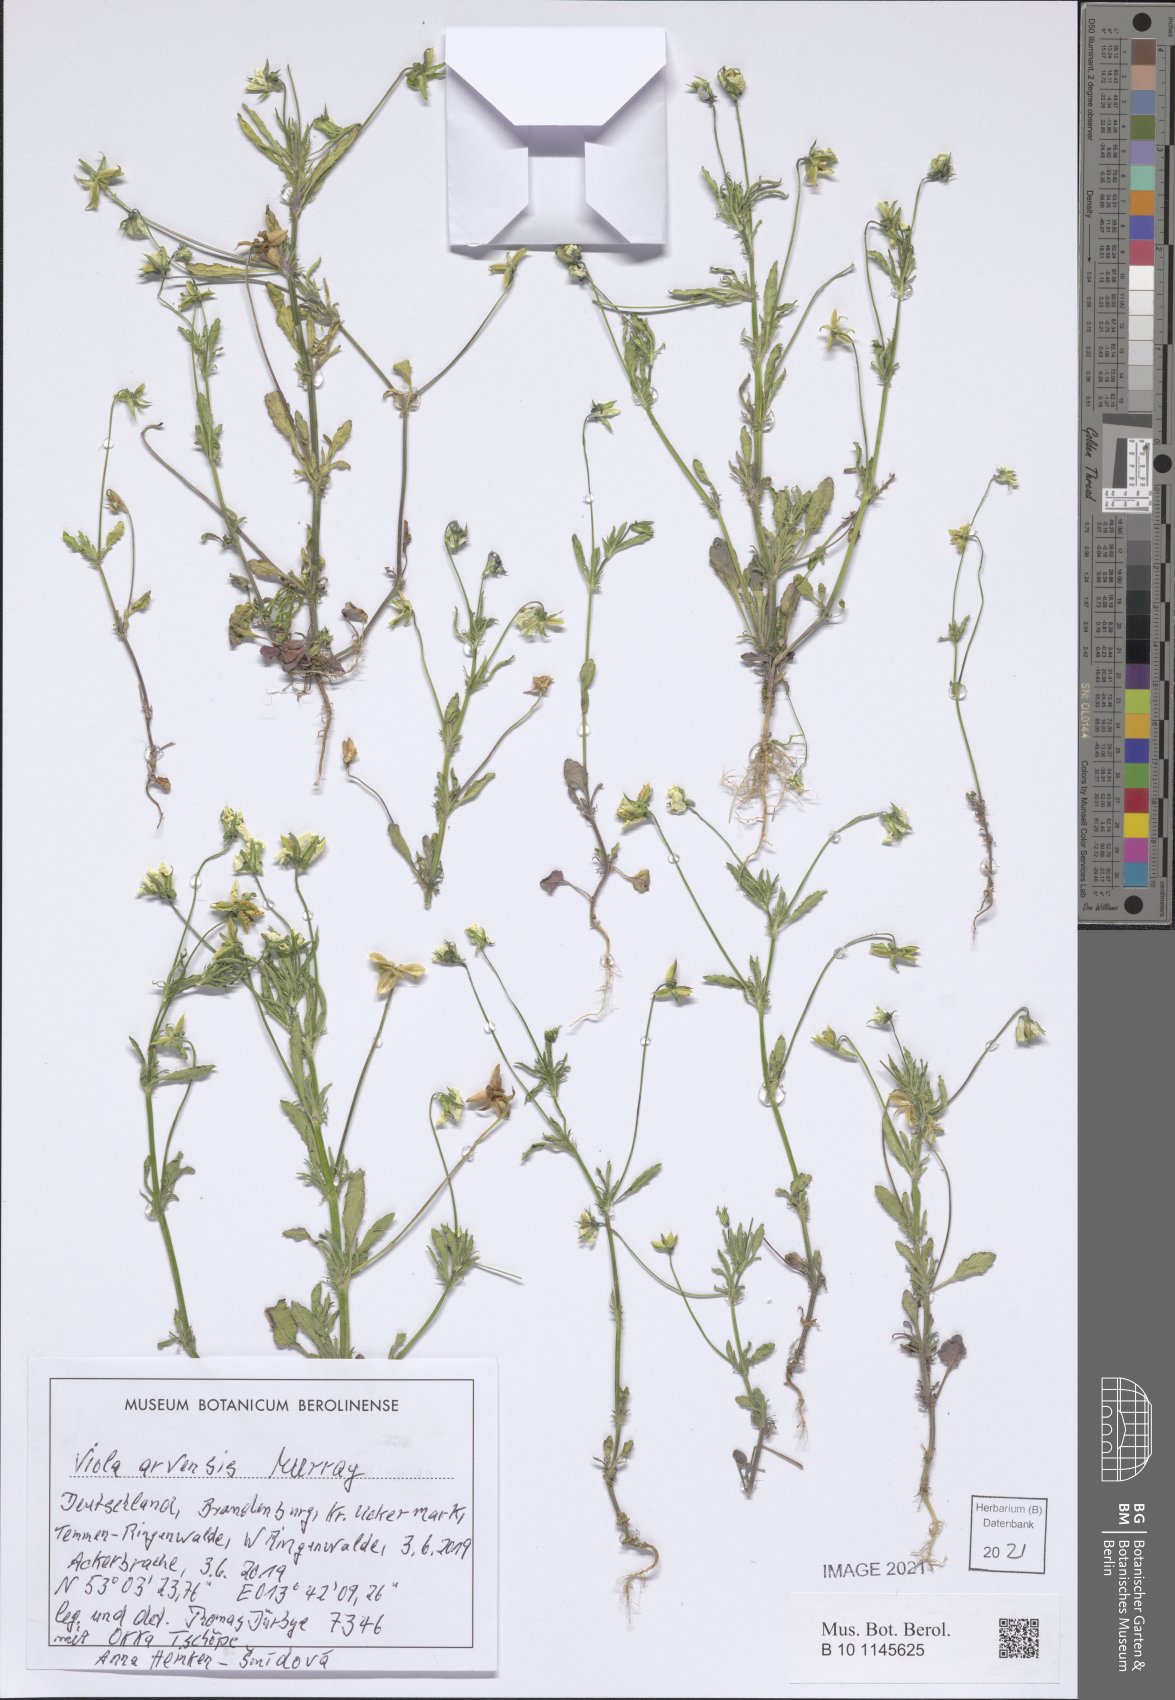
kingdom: Plantae
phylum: Tracheophyta
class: Magnoliopsida
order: Malpighiales
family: Violaceae
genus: Viola
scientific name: Viola arvensis
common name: Field pansy
